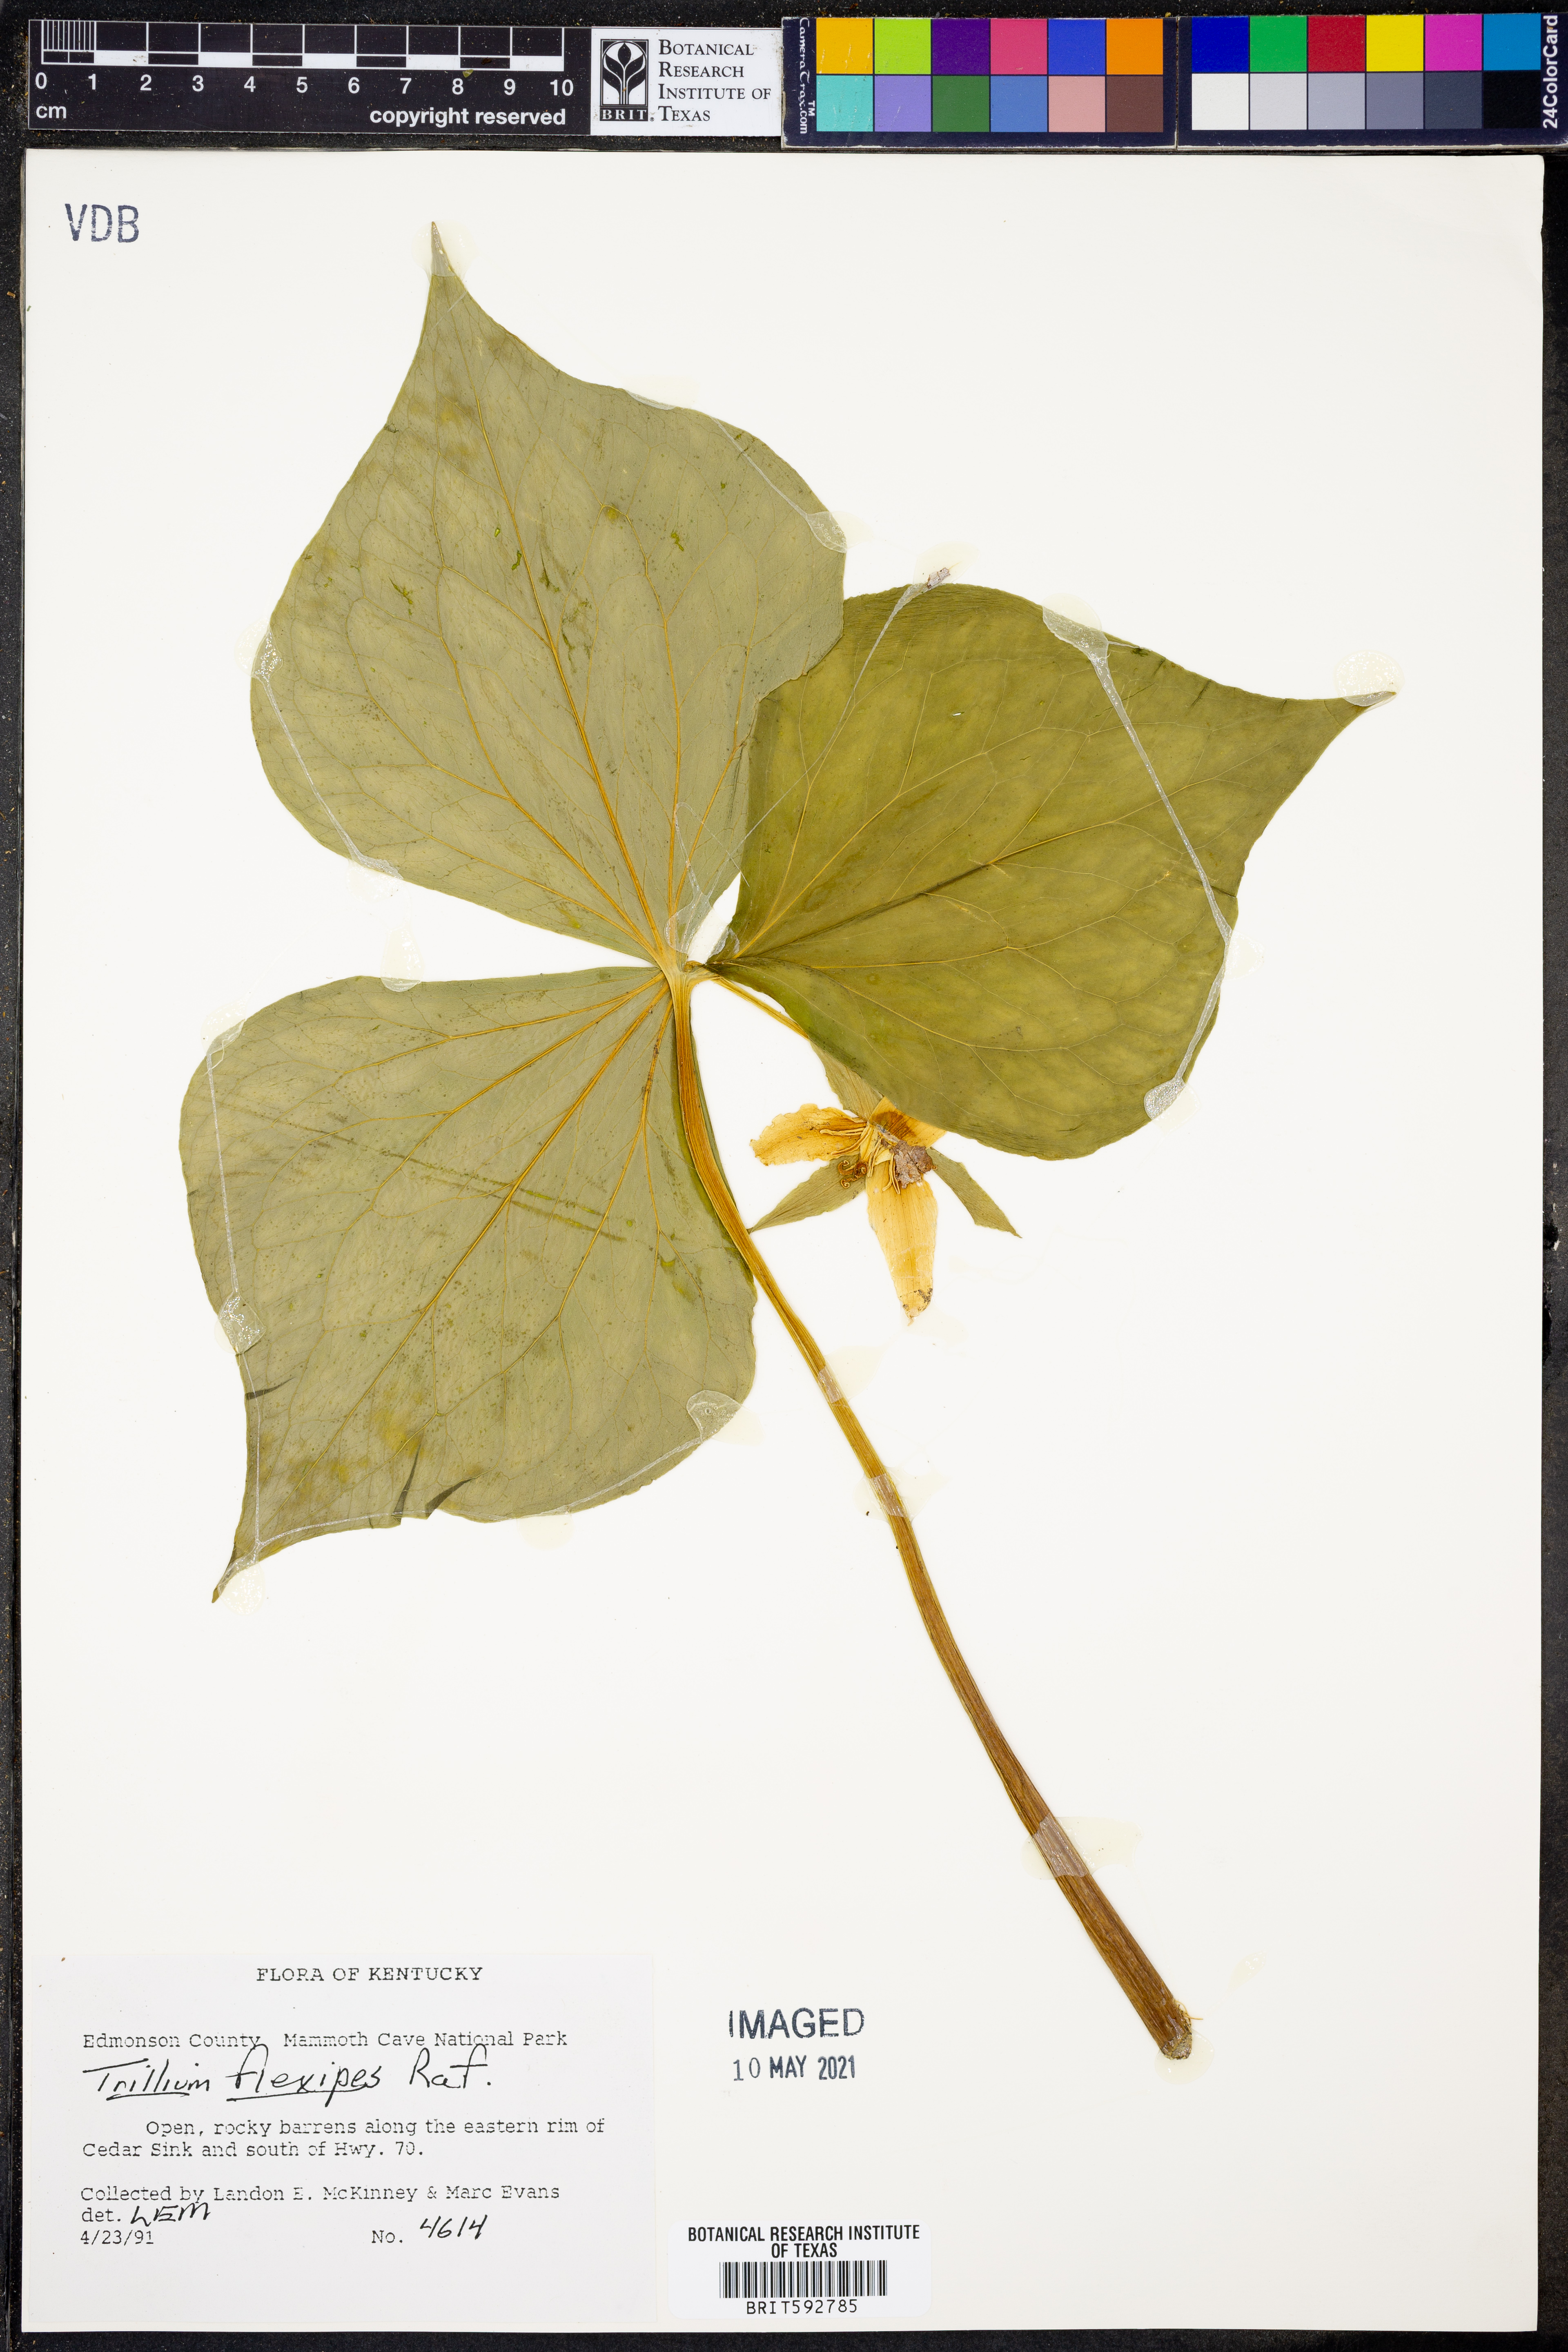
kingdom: Plantae
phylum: Tracheophyta
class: Liliopsida
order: Liliales
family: Melanthiaceae
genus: Trillium
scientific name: Trillium flexipes
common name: Drooping trillium
